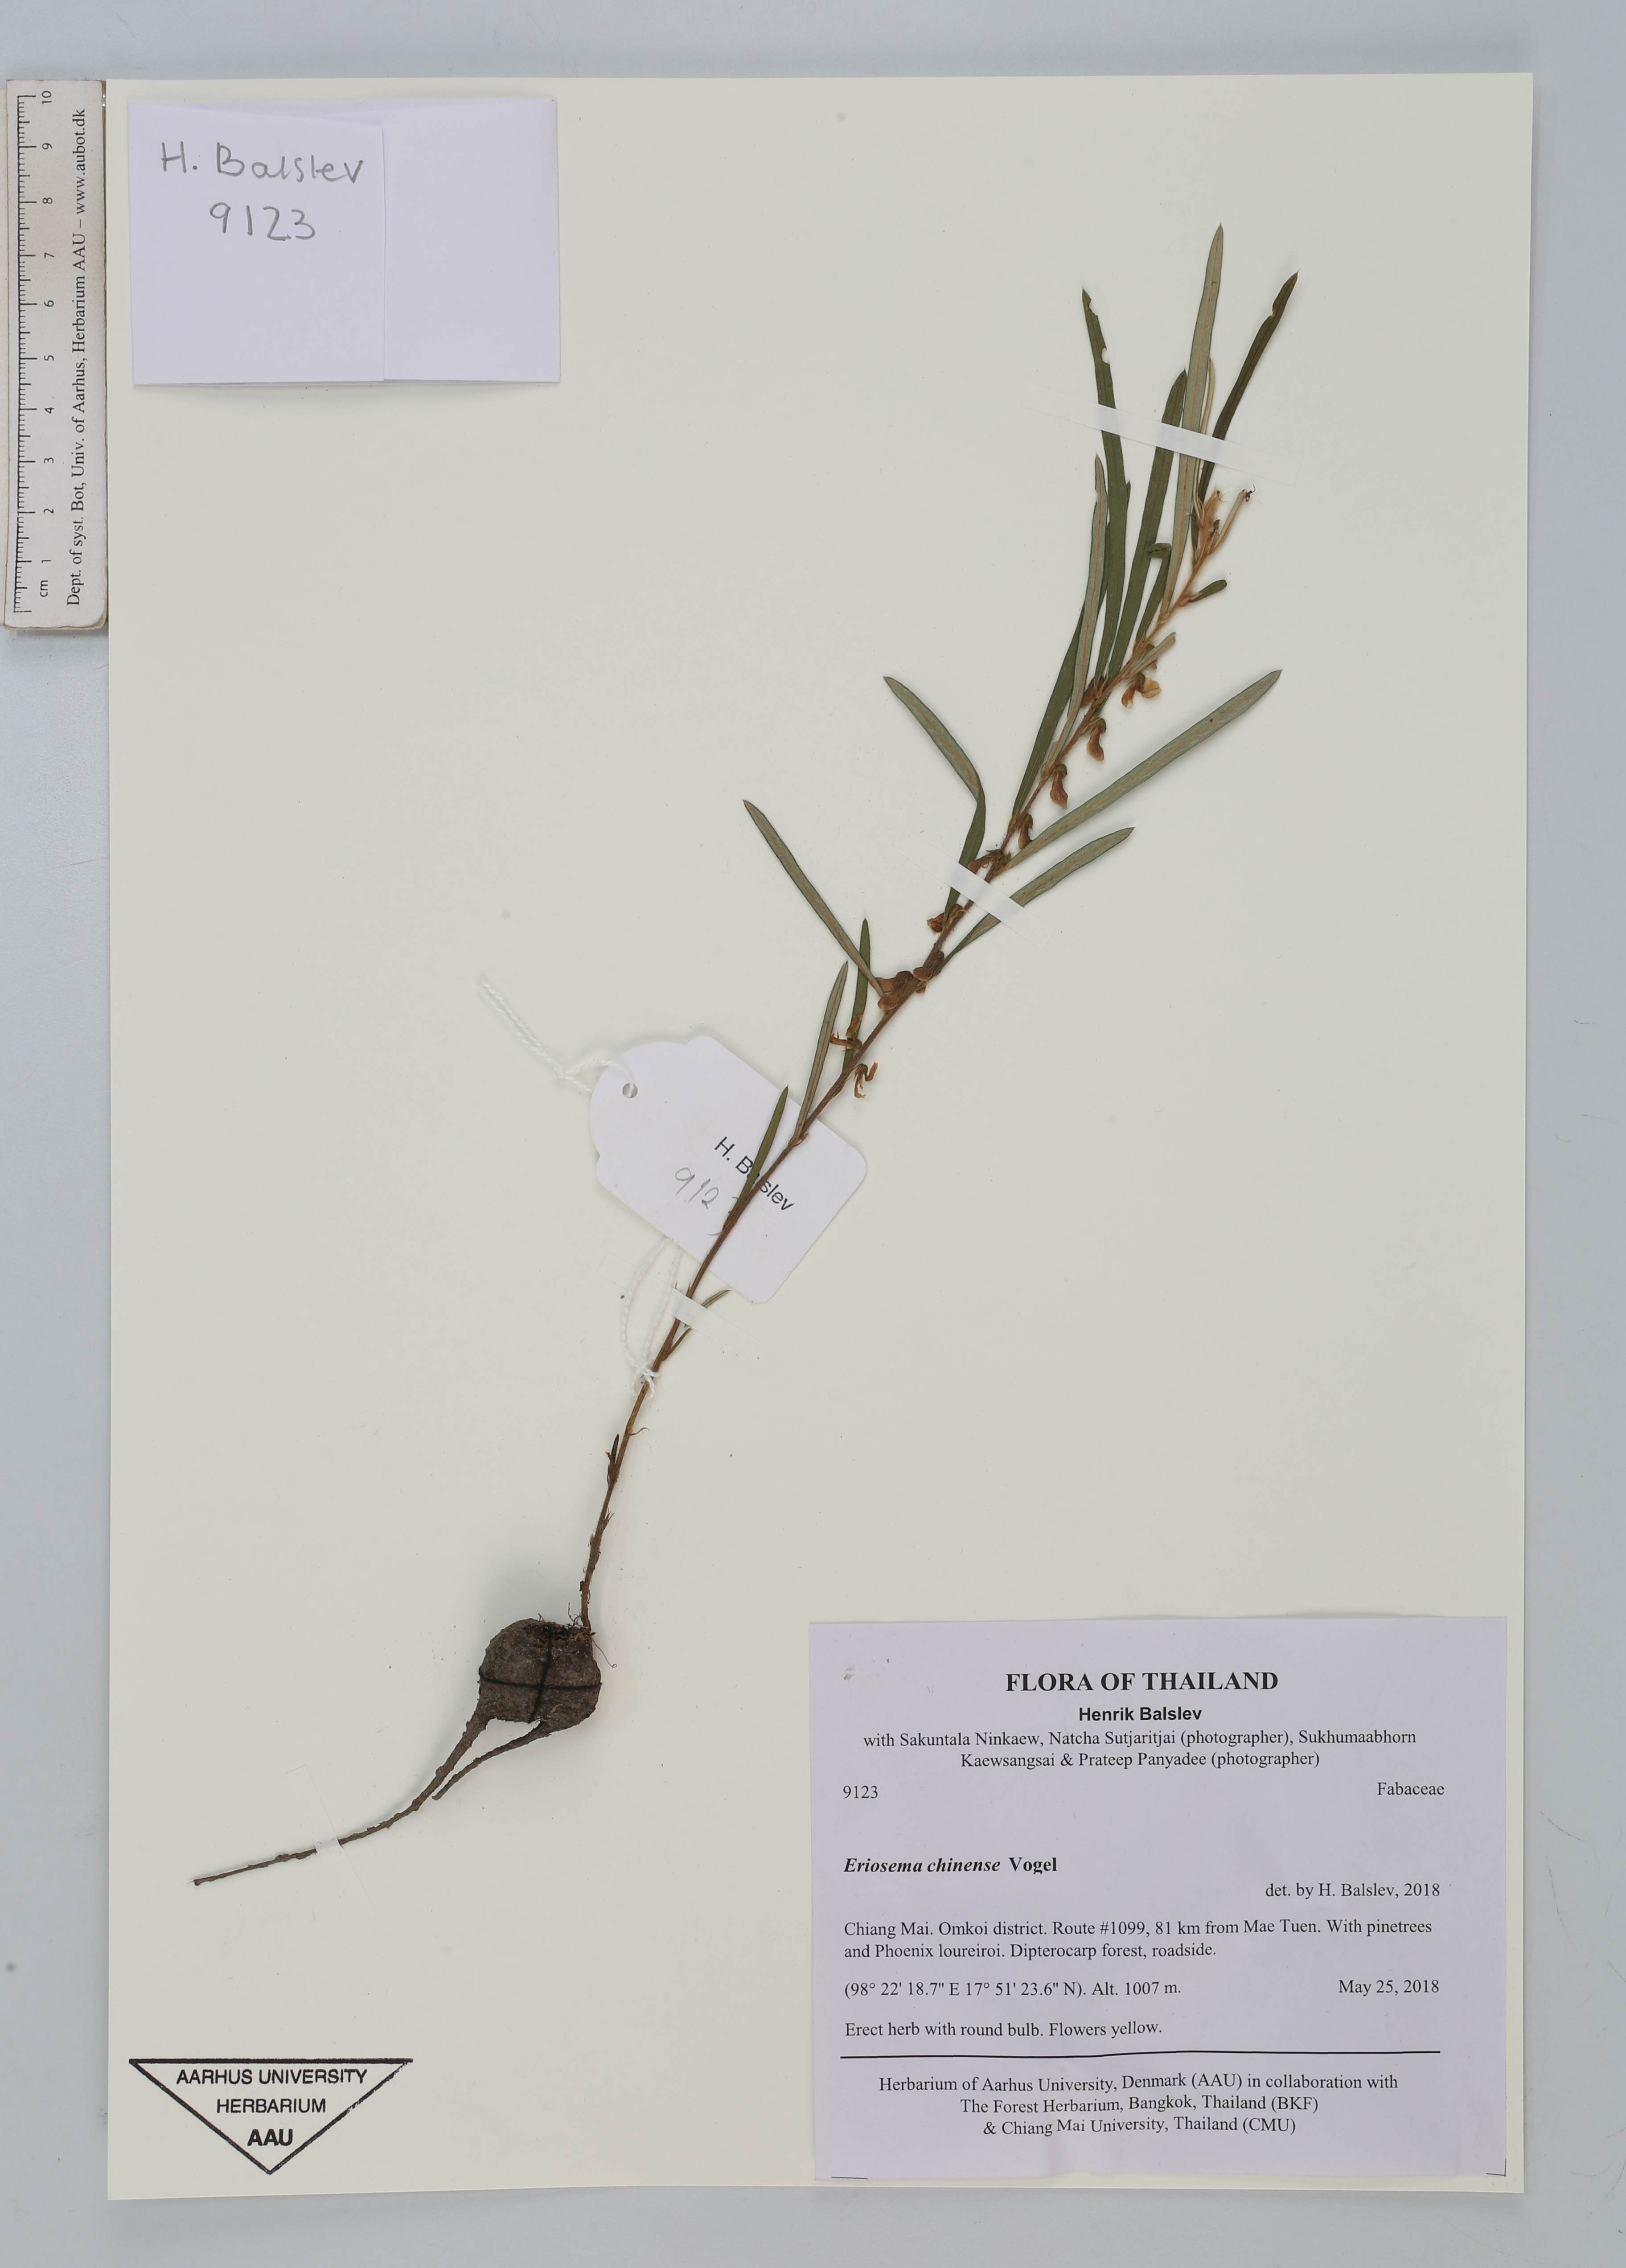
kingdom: Plantae
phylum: Tracheophyta
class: Magnoliopsida
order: Fabales
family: Fabaceae
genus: Eriosema
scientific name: Eriosema chinense
